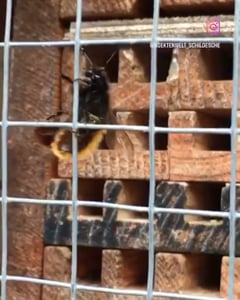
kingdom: Animalia
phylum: Arthropoda
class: Insecta
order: Hymenoptera
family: Megachilidae
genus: Osmia
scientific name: Osmia cornuta
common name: Mason bee
